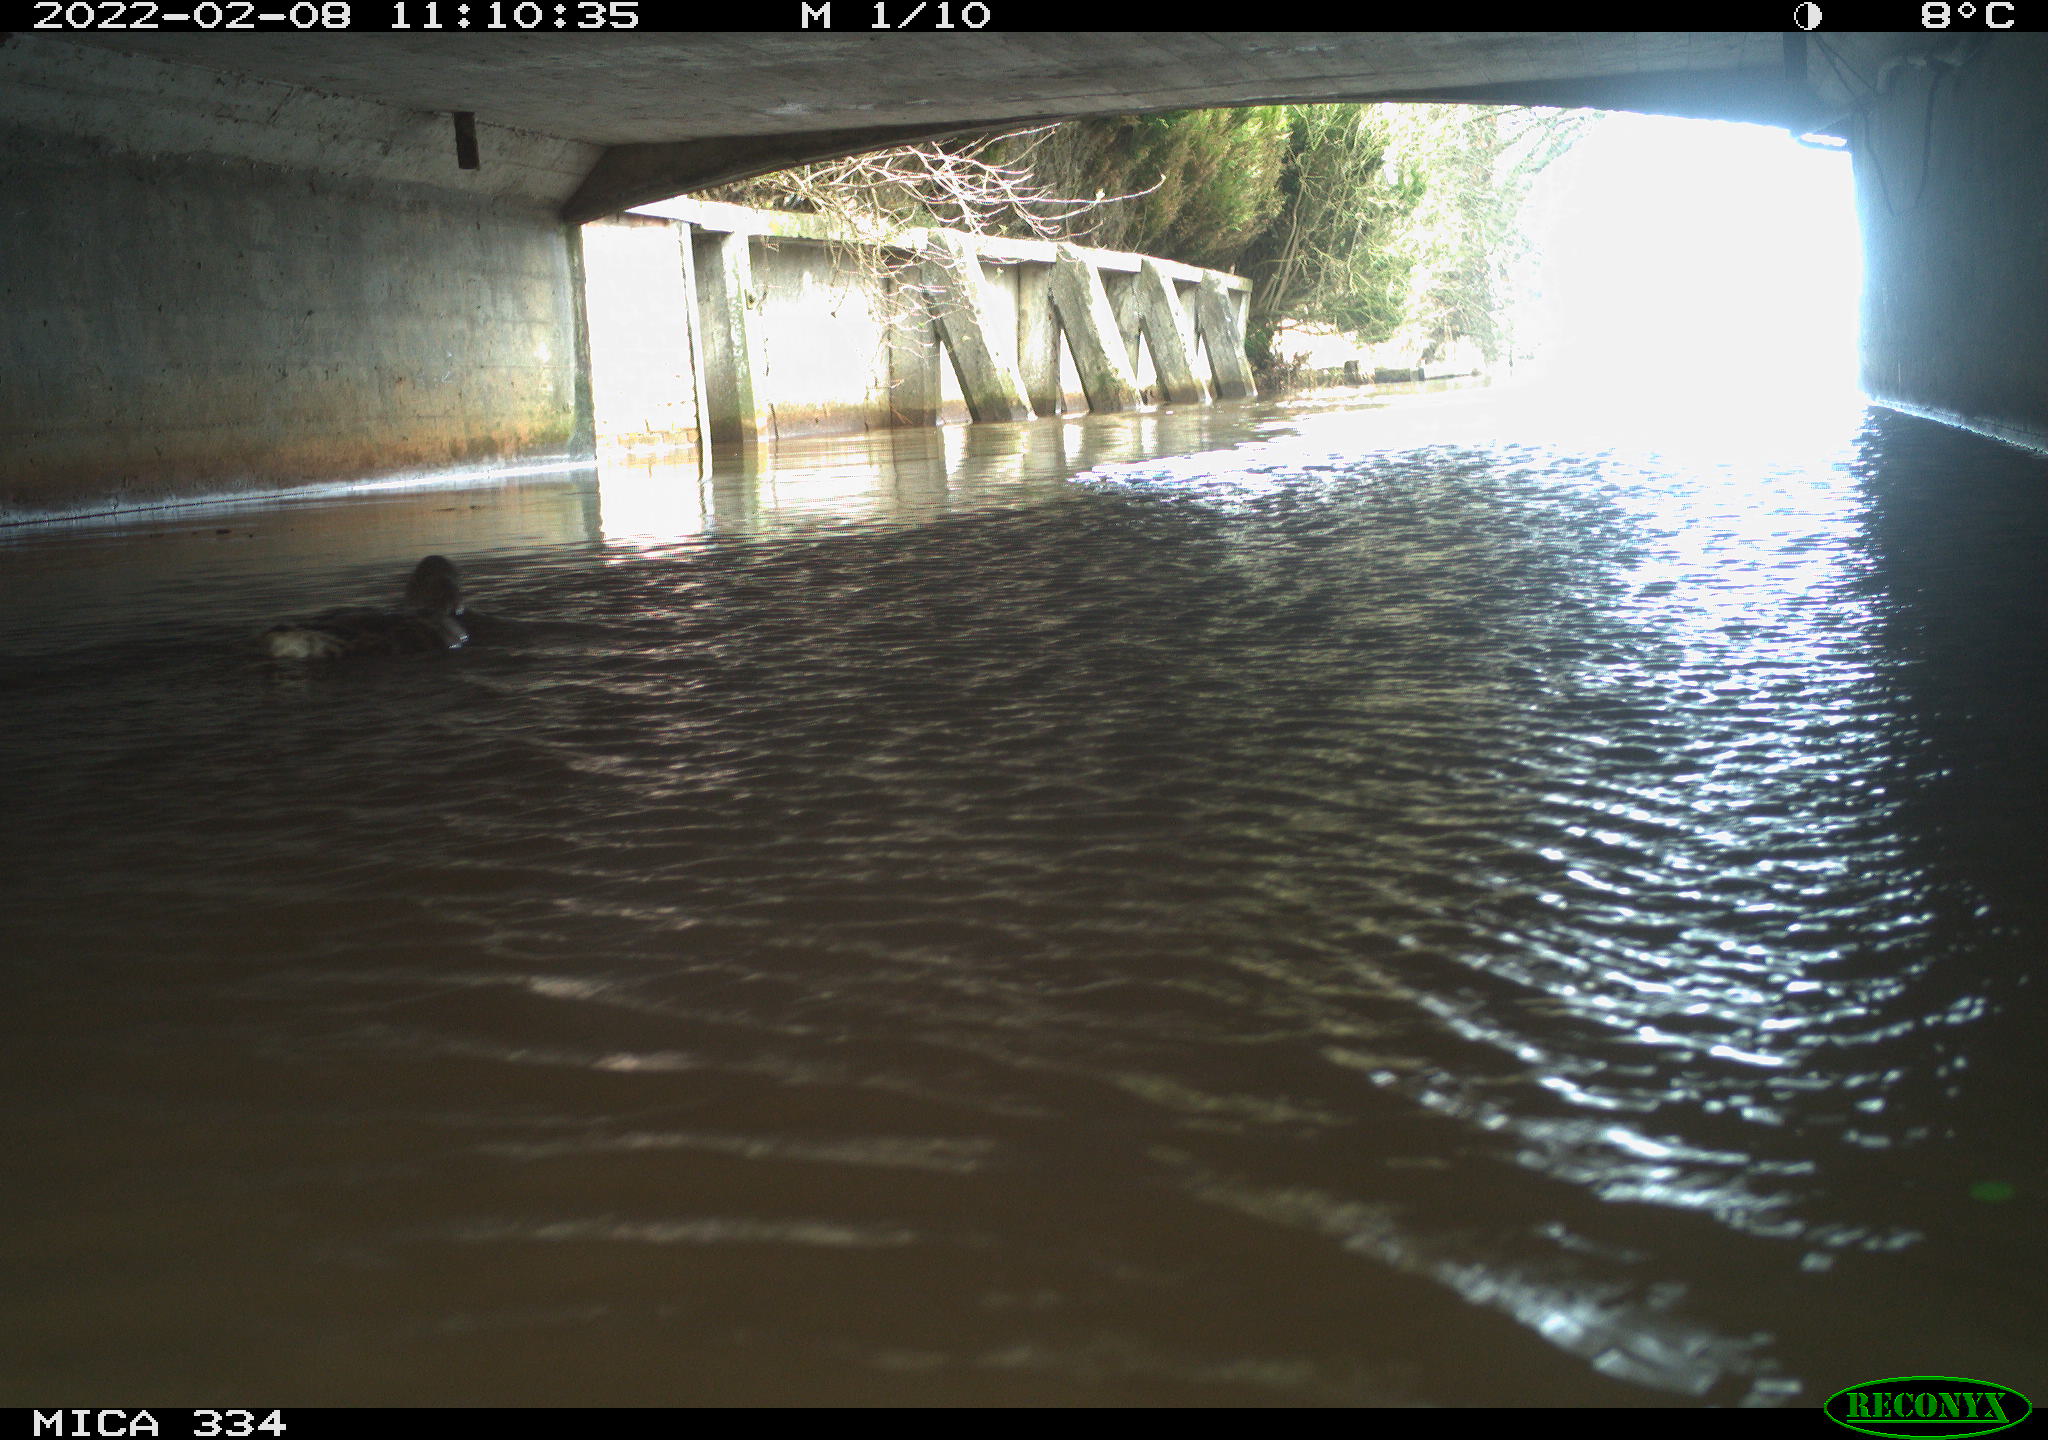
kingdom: Animalia
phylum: Chordata
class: Aves
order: Anseriformes
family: Anatidae
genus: Anas
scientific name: Anas platyrhynchos
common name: Mallard
